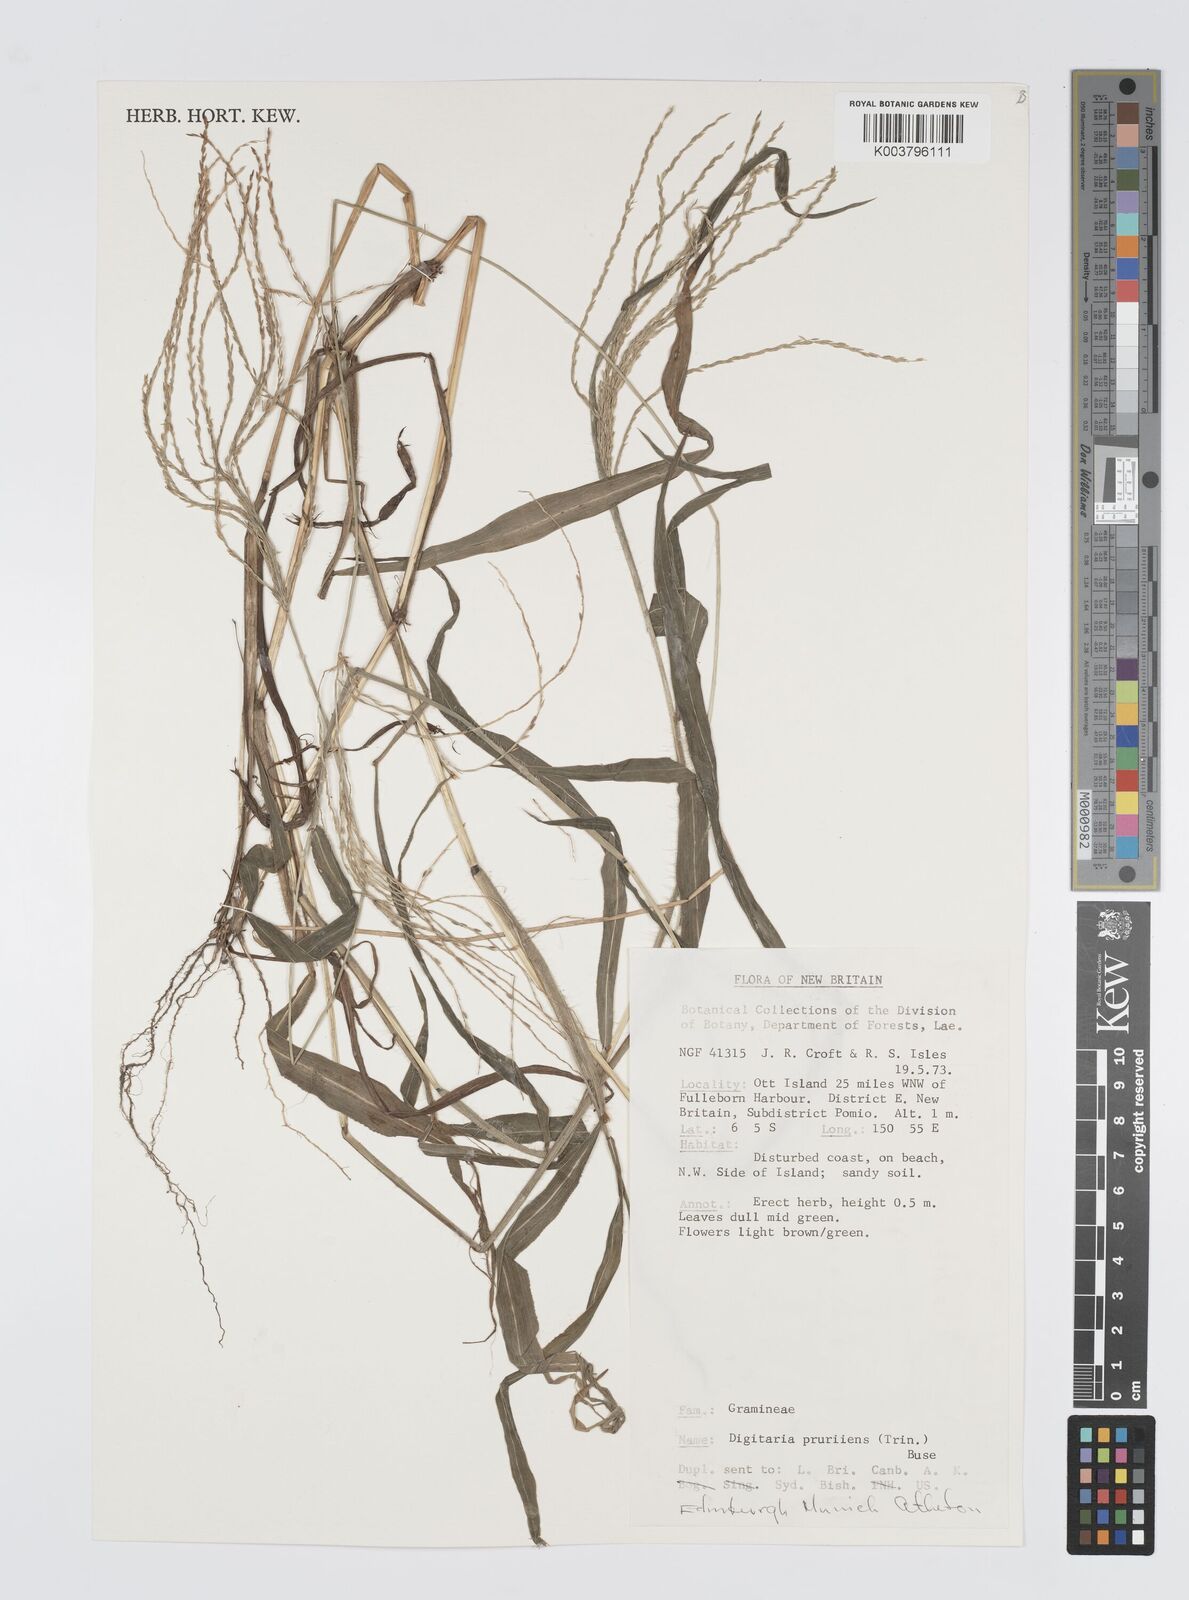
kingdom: Plantae
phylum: Tracheophyta
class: Liliopsida
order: Poales
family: Poaceae
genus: Digitaria
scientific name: Digitaria setigera
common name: East indian crabgrass
